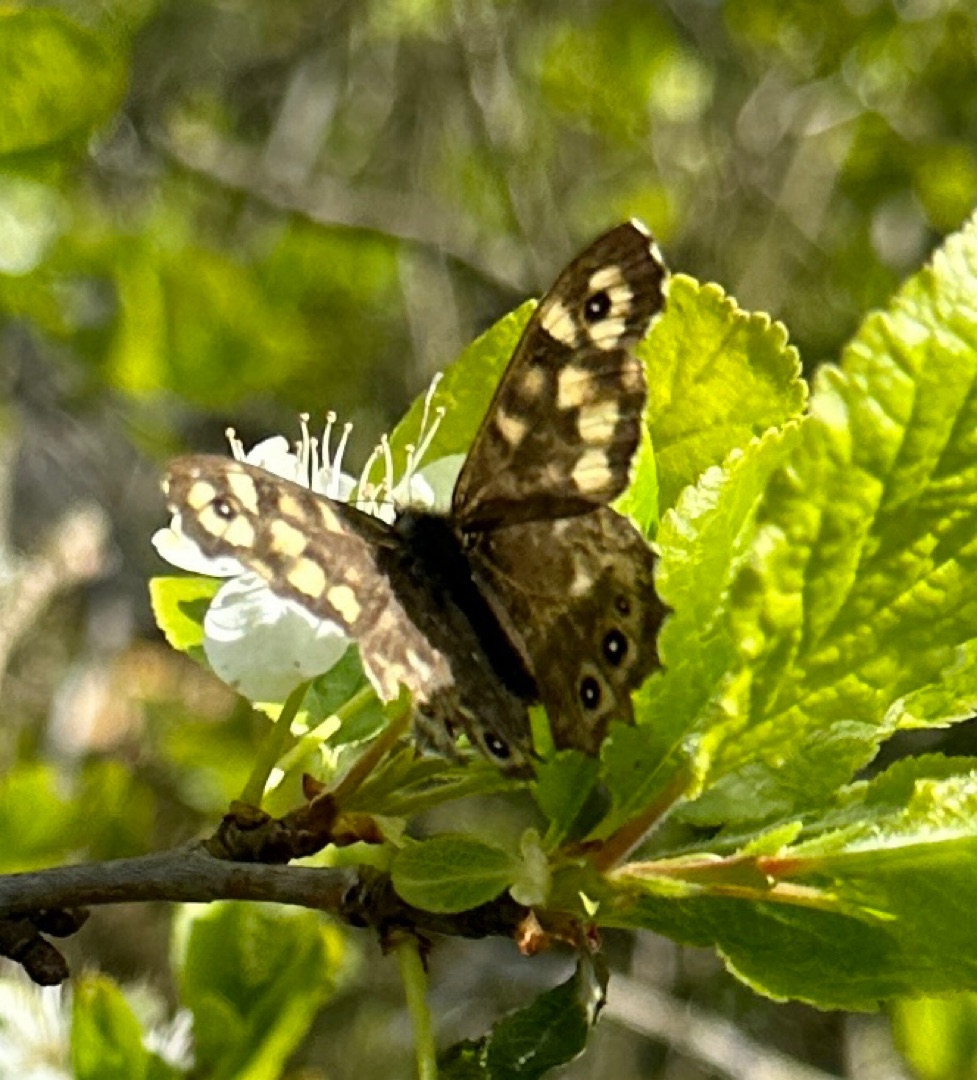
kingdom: Animalia
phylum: Arthropoda
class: Insecta
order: Lepidoptera
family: Nymphalidae
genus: Pararge
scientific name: Pararge aegeria
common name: Skovrandøje
